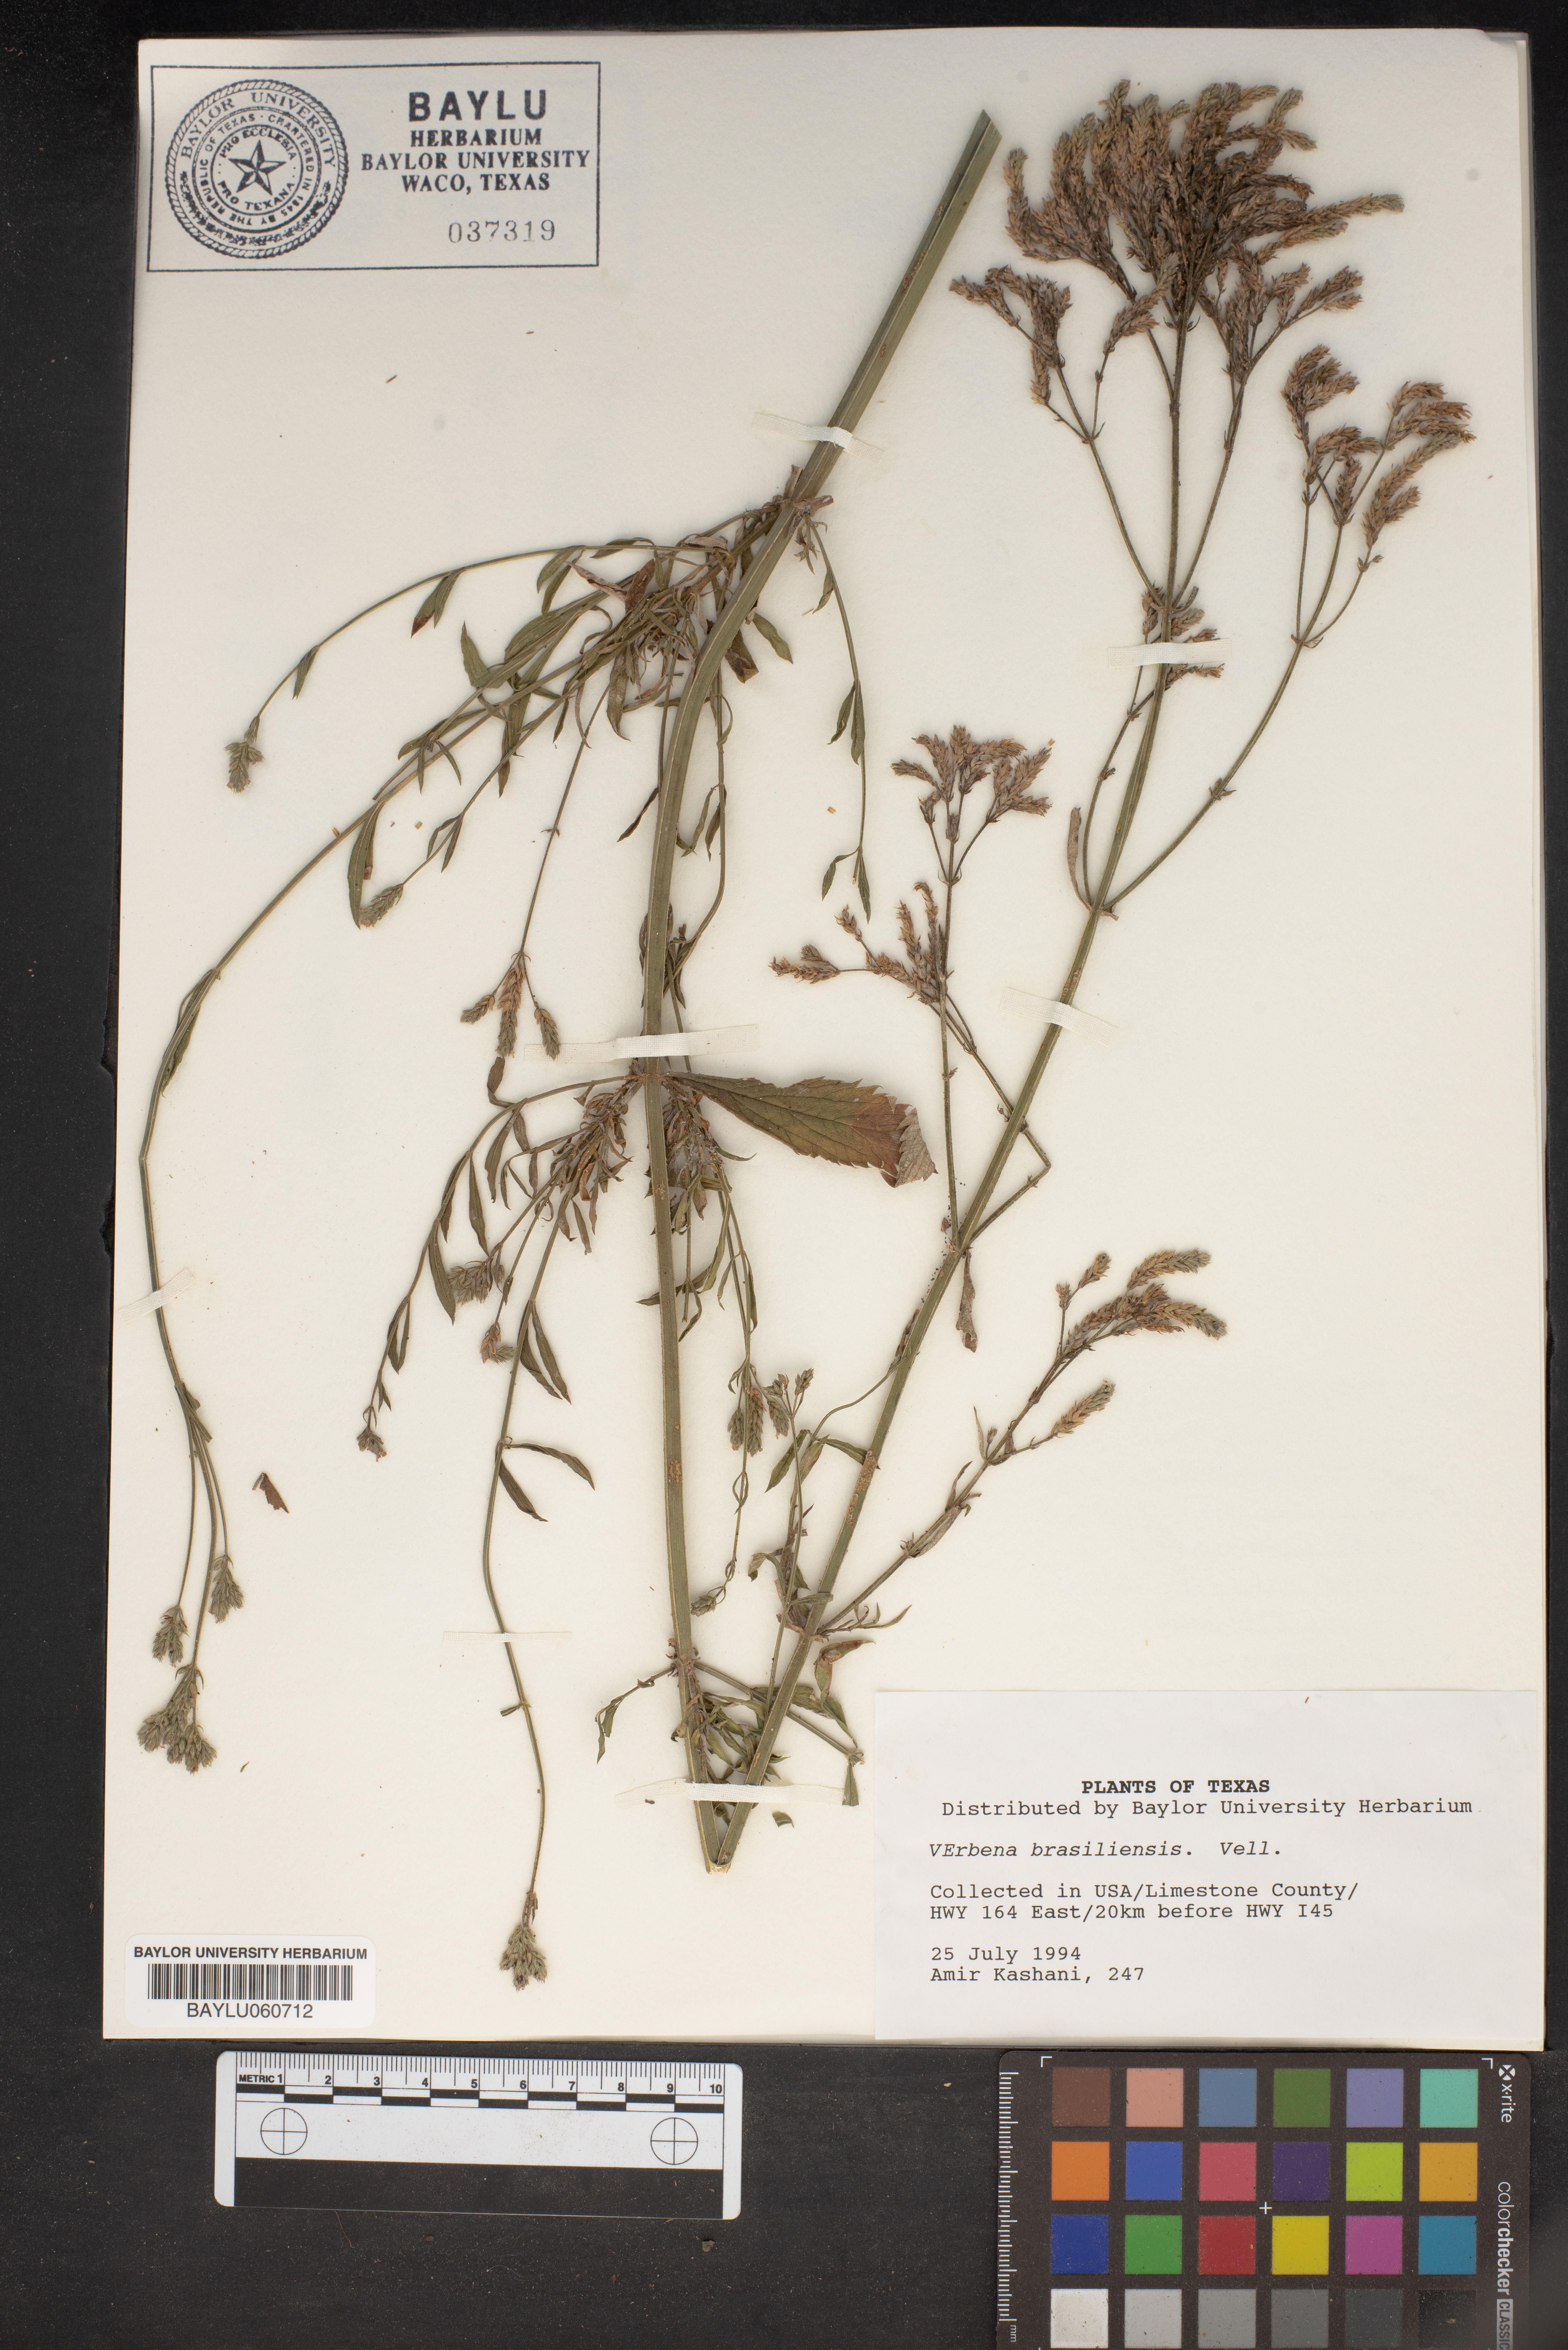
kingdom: Plantae
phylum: Tracheophyta
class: Magnoliopsida
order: Lamiales
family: Verbenaceae
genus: Verbena
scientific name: Verbena brasiliensis
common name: Brazilian vervain
